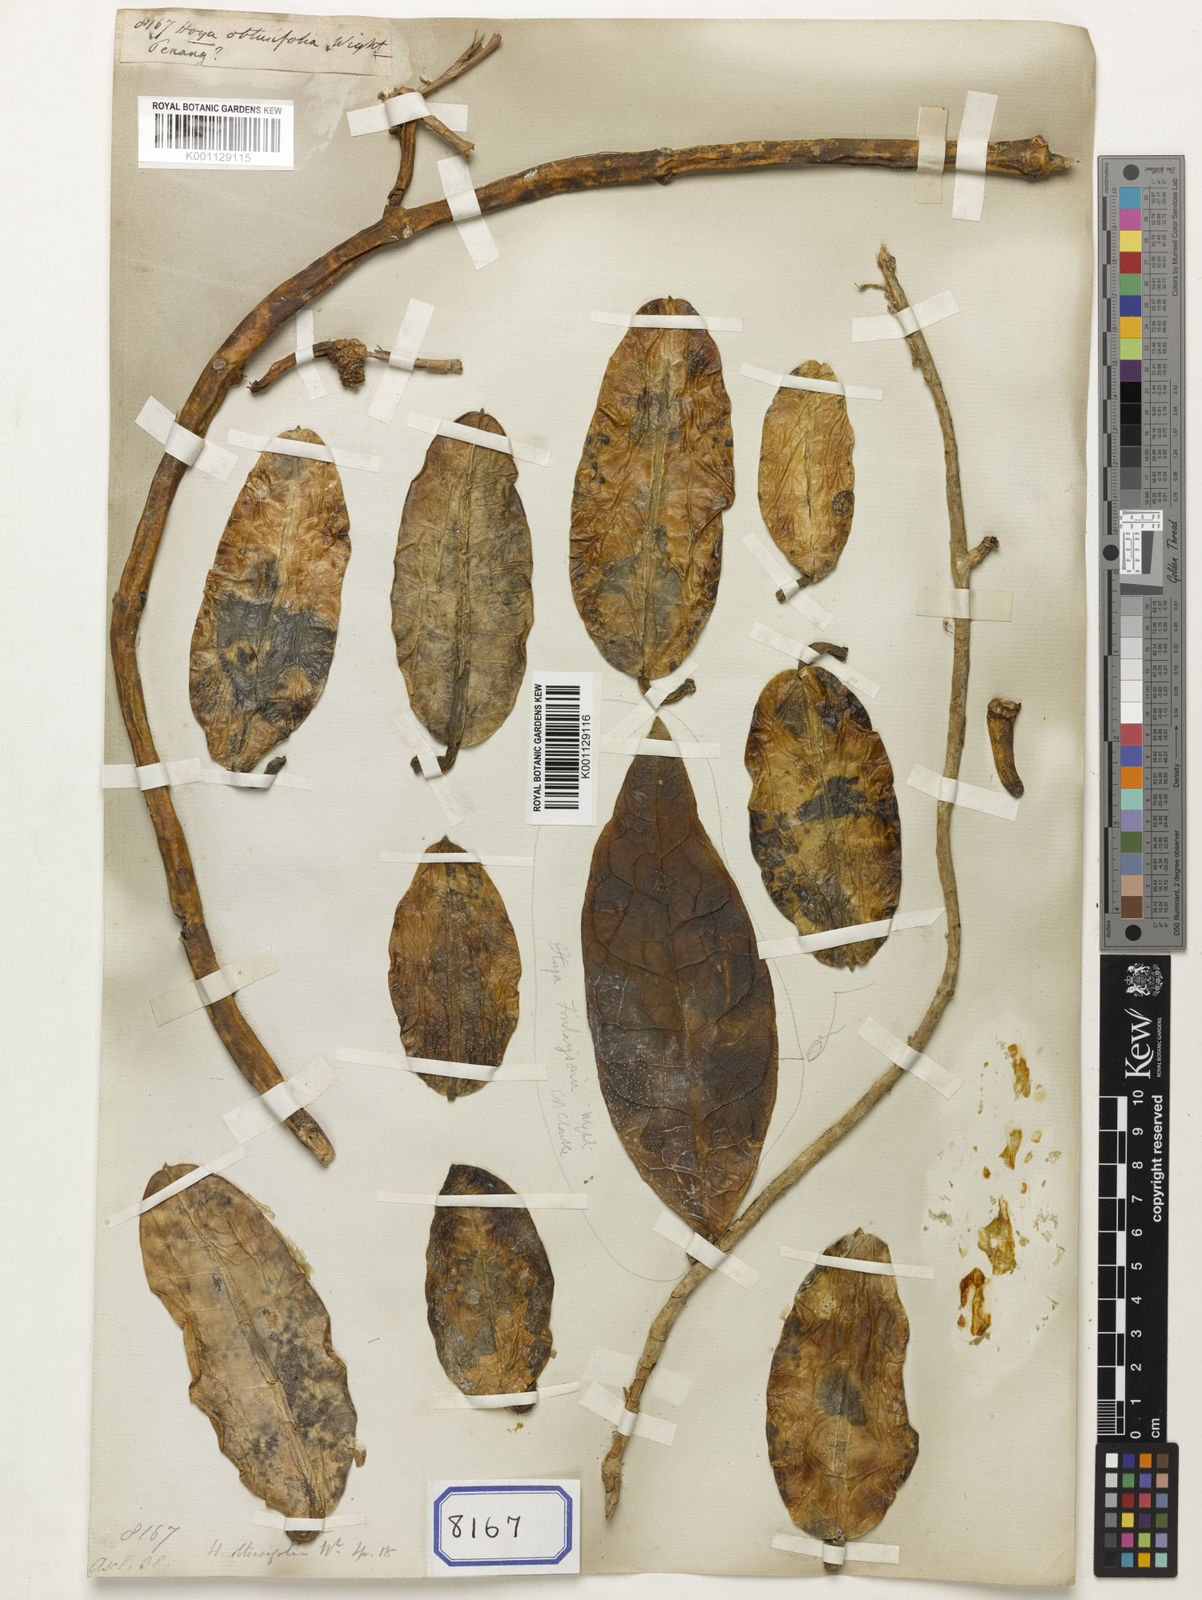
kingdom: Plantae
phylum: Tracheophyta
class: Magnoliopsida
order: Gentianales
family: Apocynaceae
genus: Hoya
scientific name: Hoya obtusifolia
